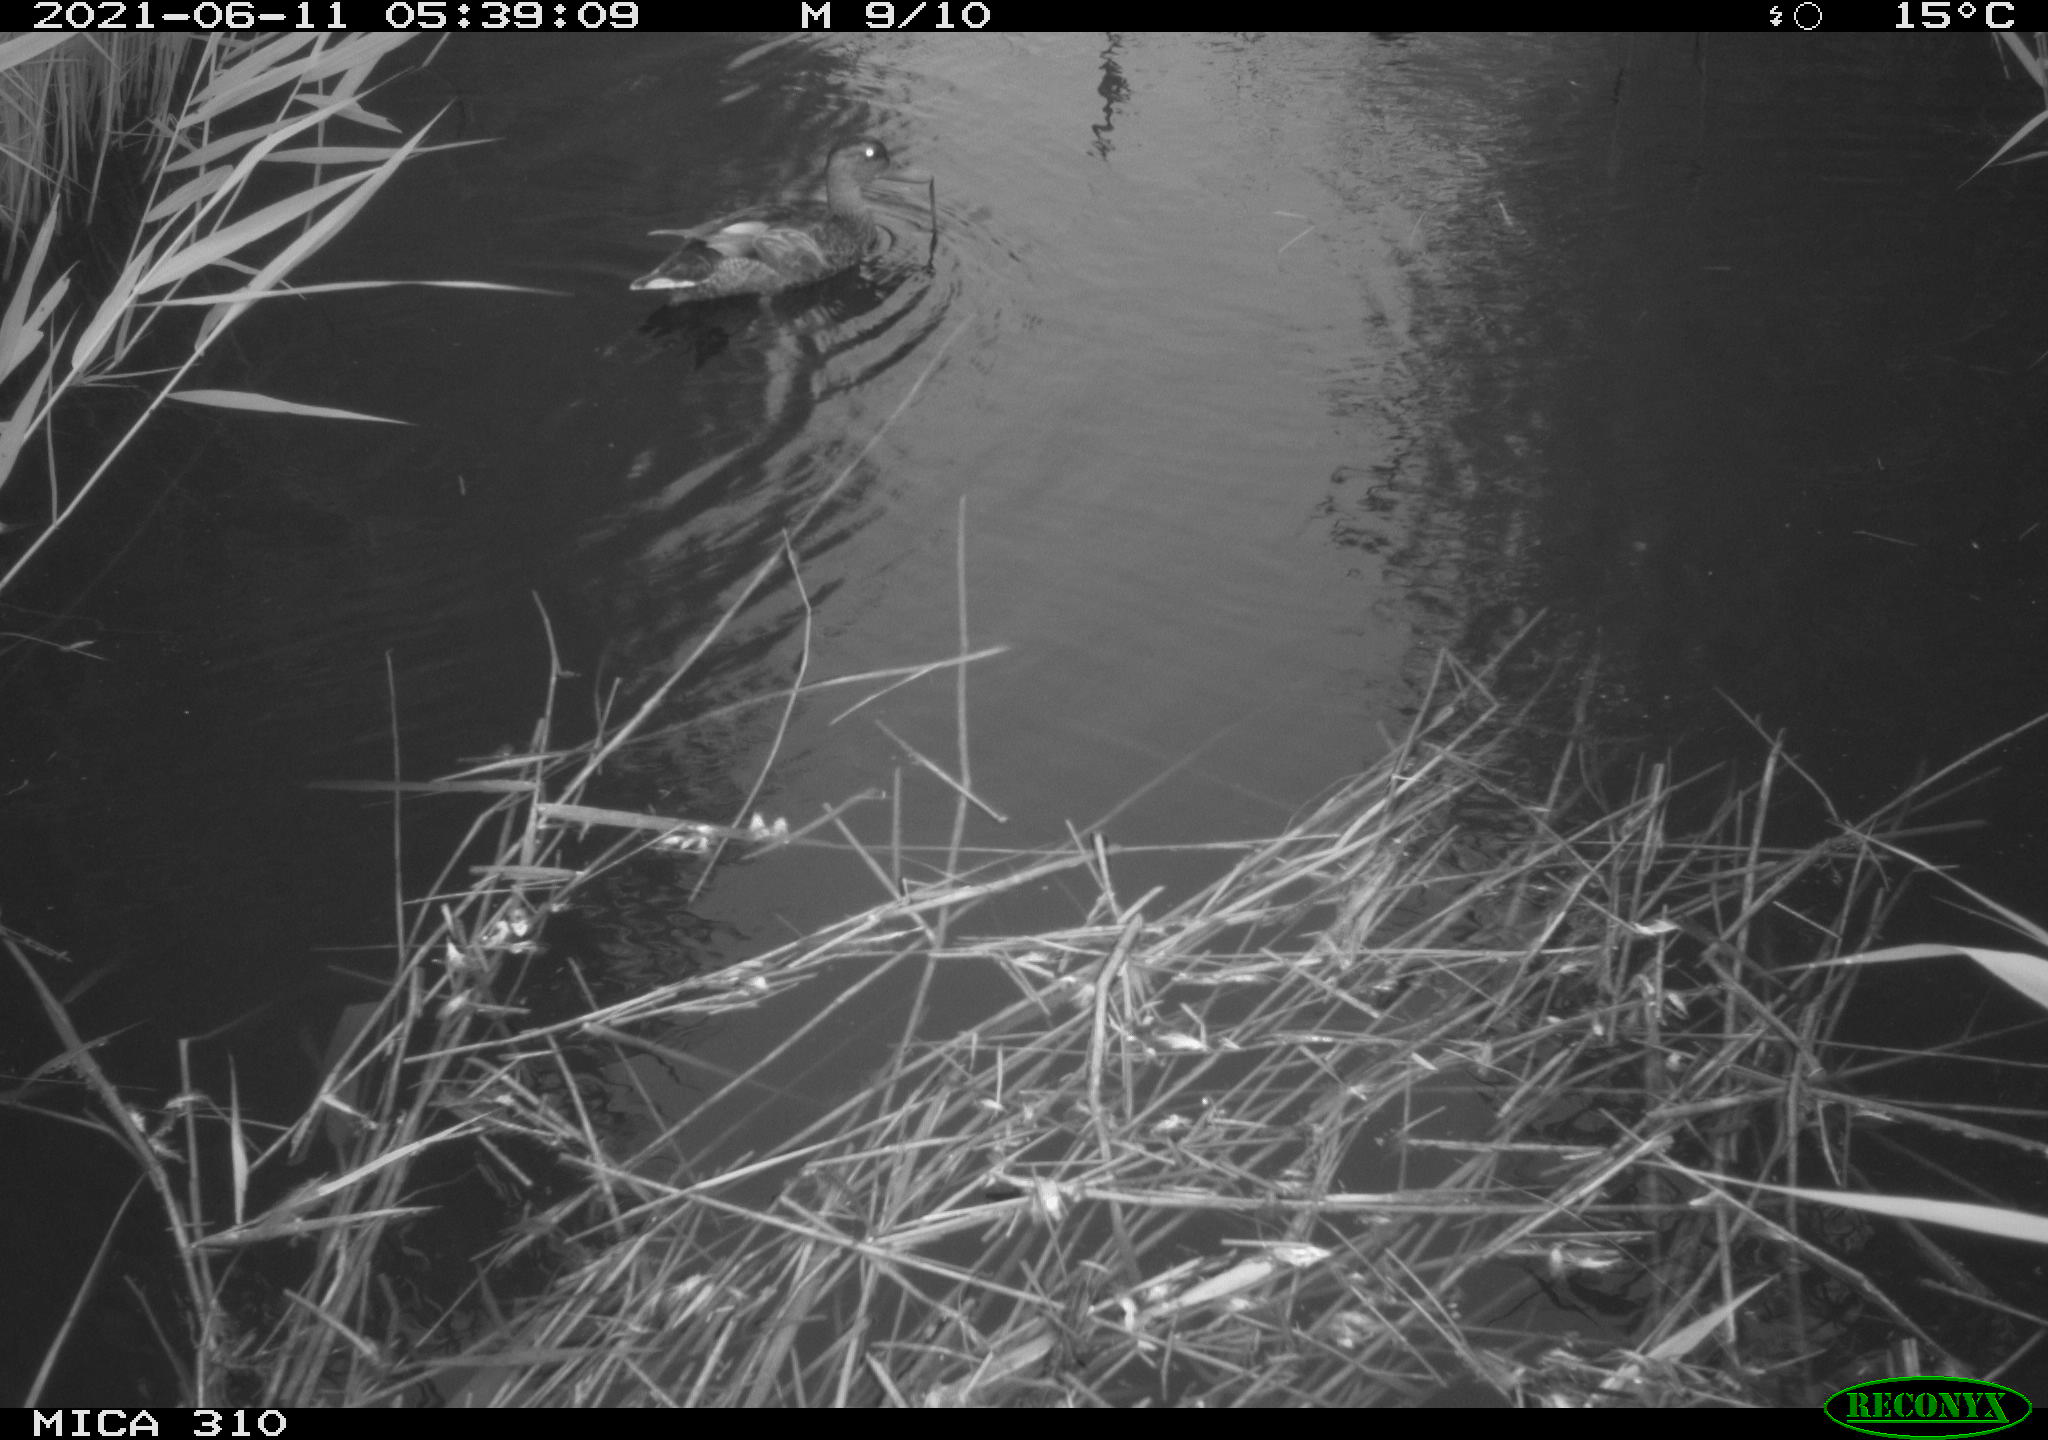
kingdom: Animalia
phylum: Chordata
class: Aves
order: Anseriformes
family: Anatidae
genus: Anas
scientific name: Anas
